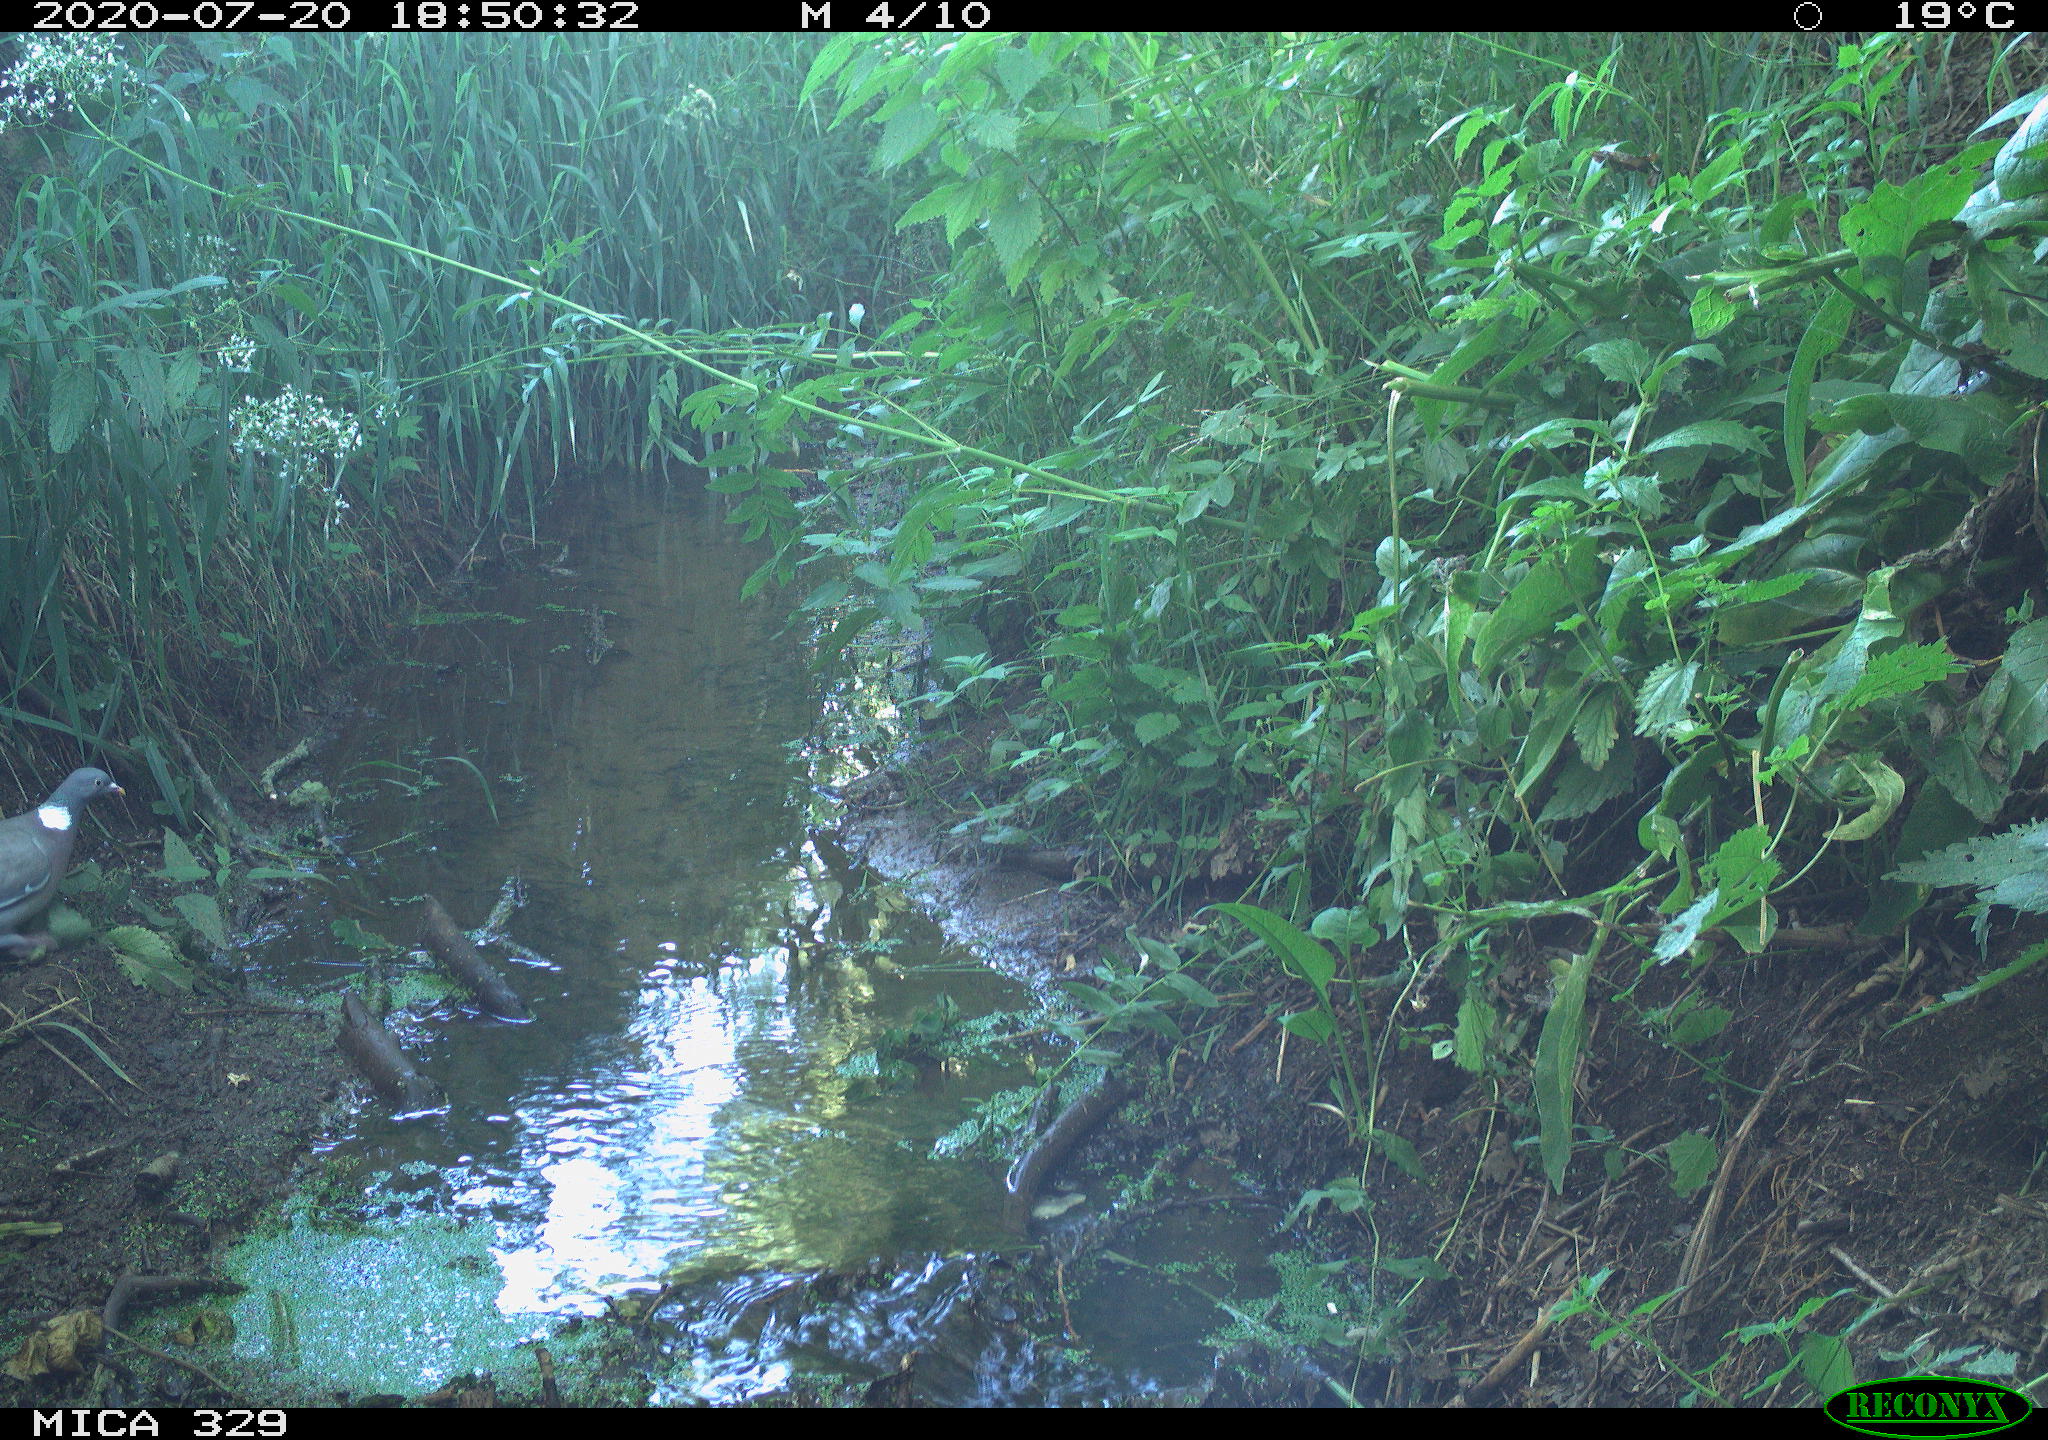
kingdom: Animalia
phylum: Chordata
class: Aves
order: Columbiformes
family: Columbidae
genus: Columba
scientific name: Columba palumbus
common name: Common wood pigeon
